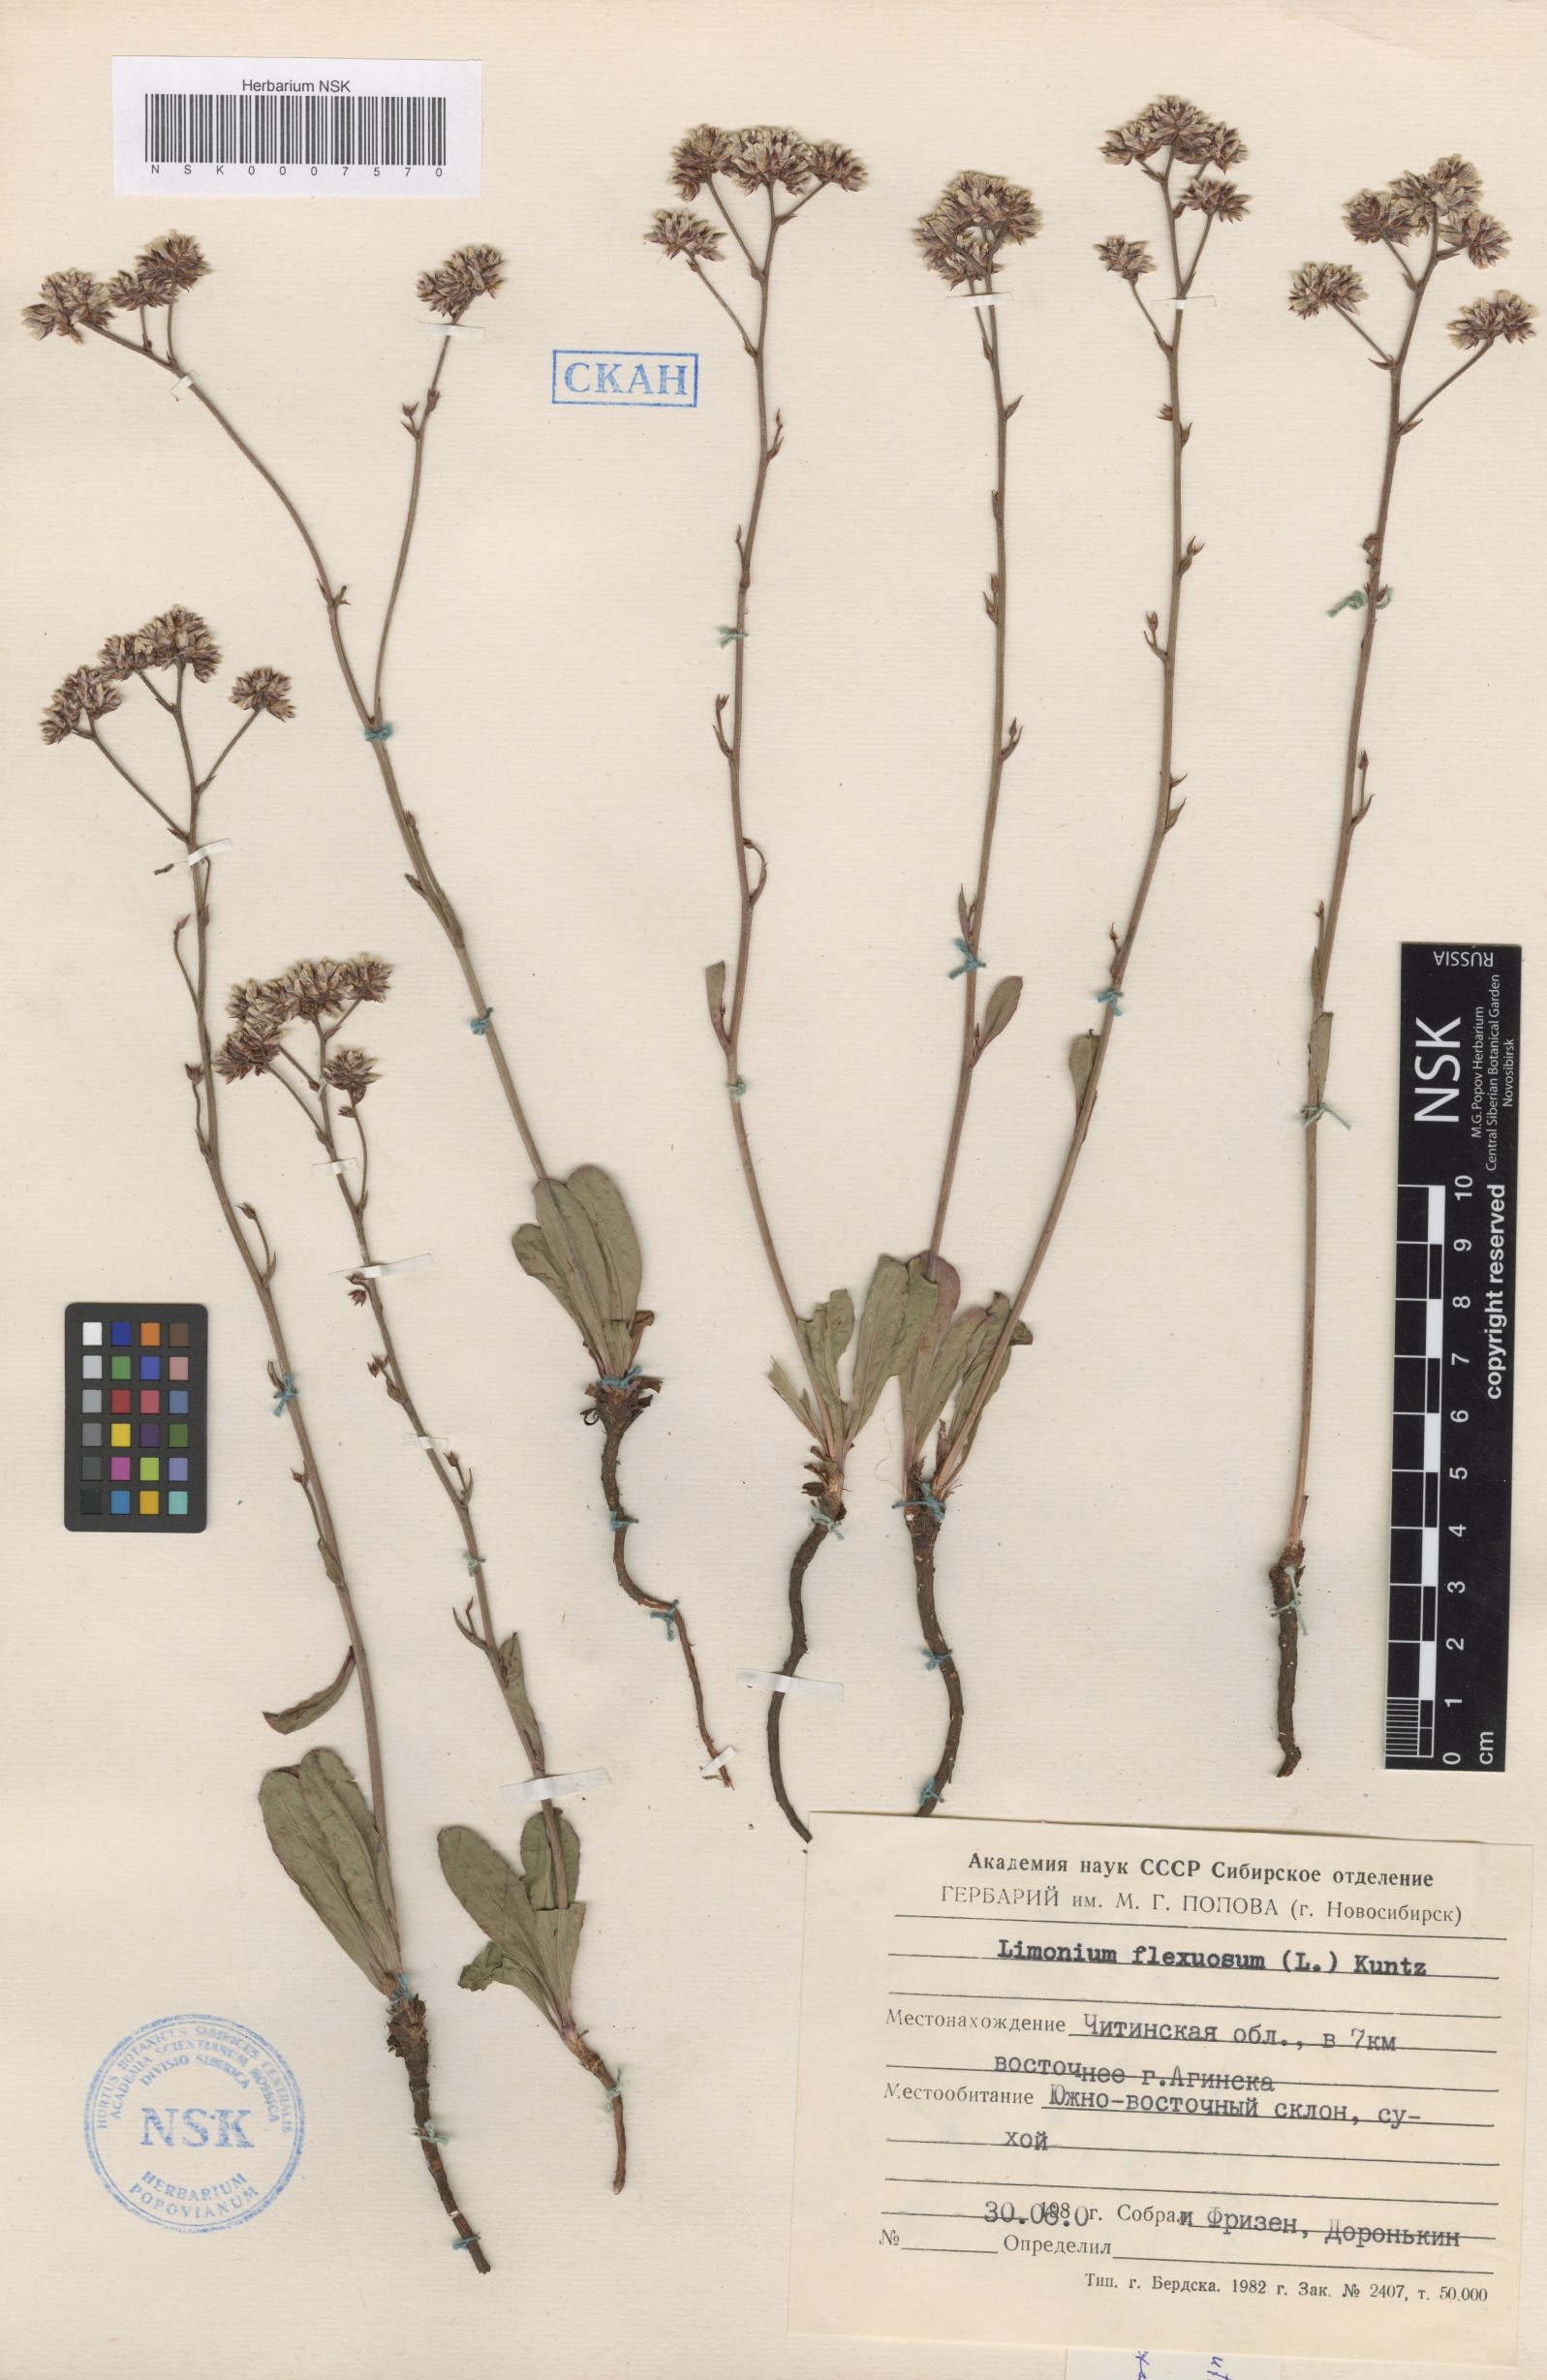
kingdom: Plantae
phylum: Tracheophyta
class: Magnoliopsida
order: Caryophyllales
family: Plumbaginaceae
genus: Limonium
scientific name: Limonium flexuosum
